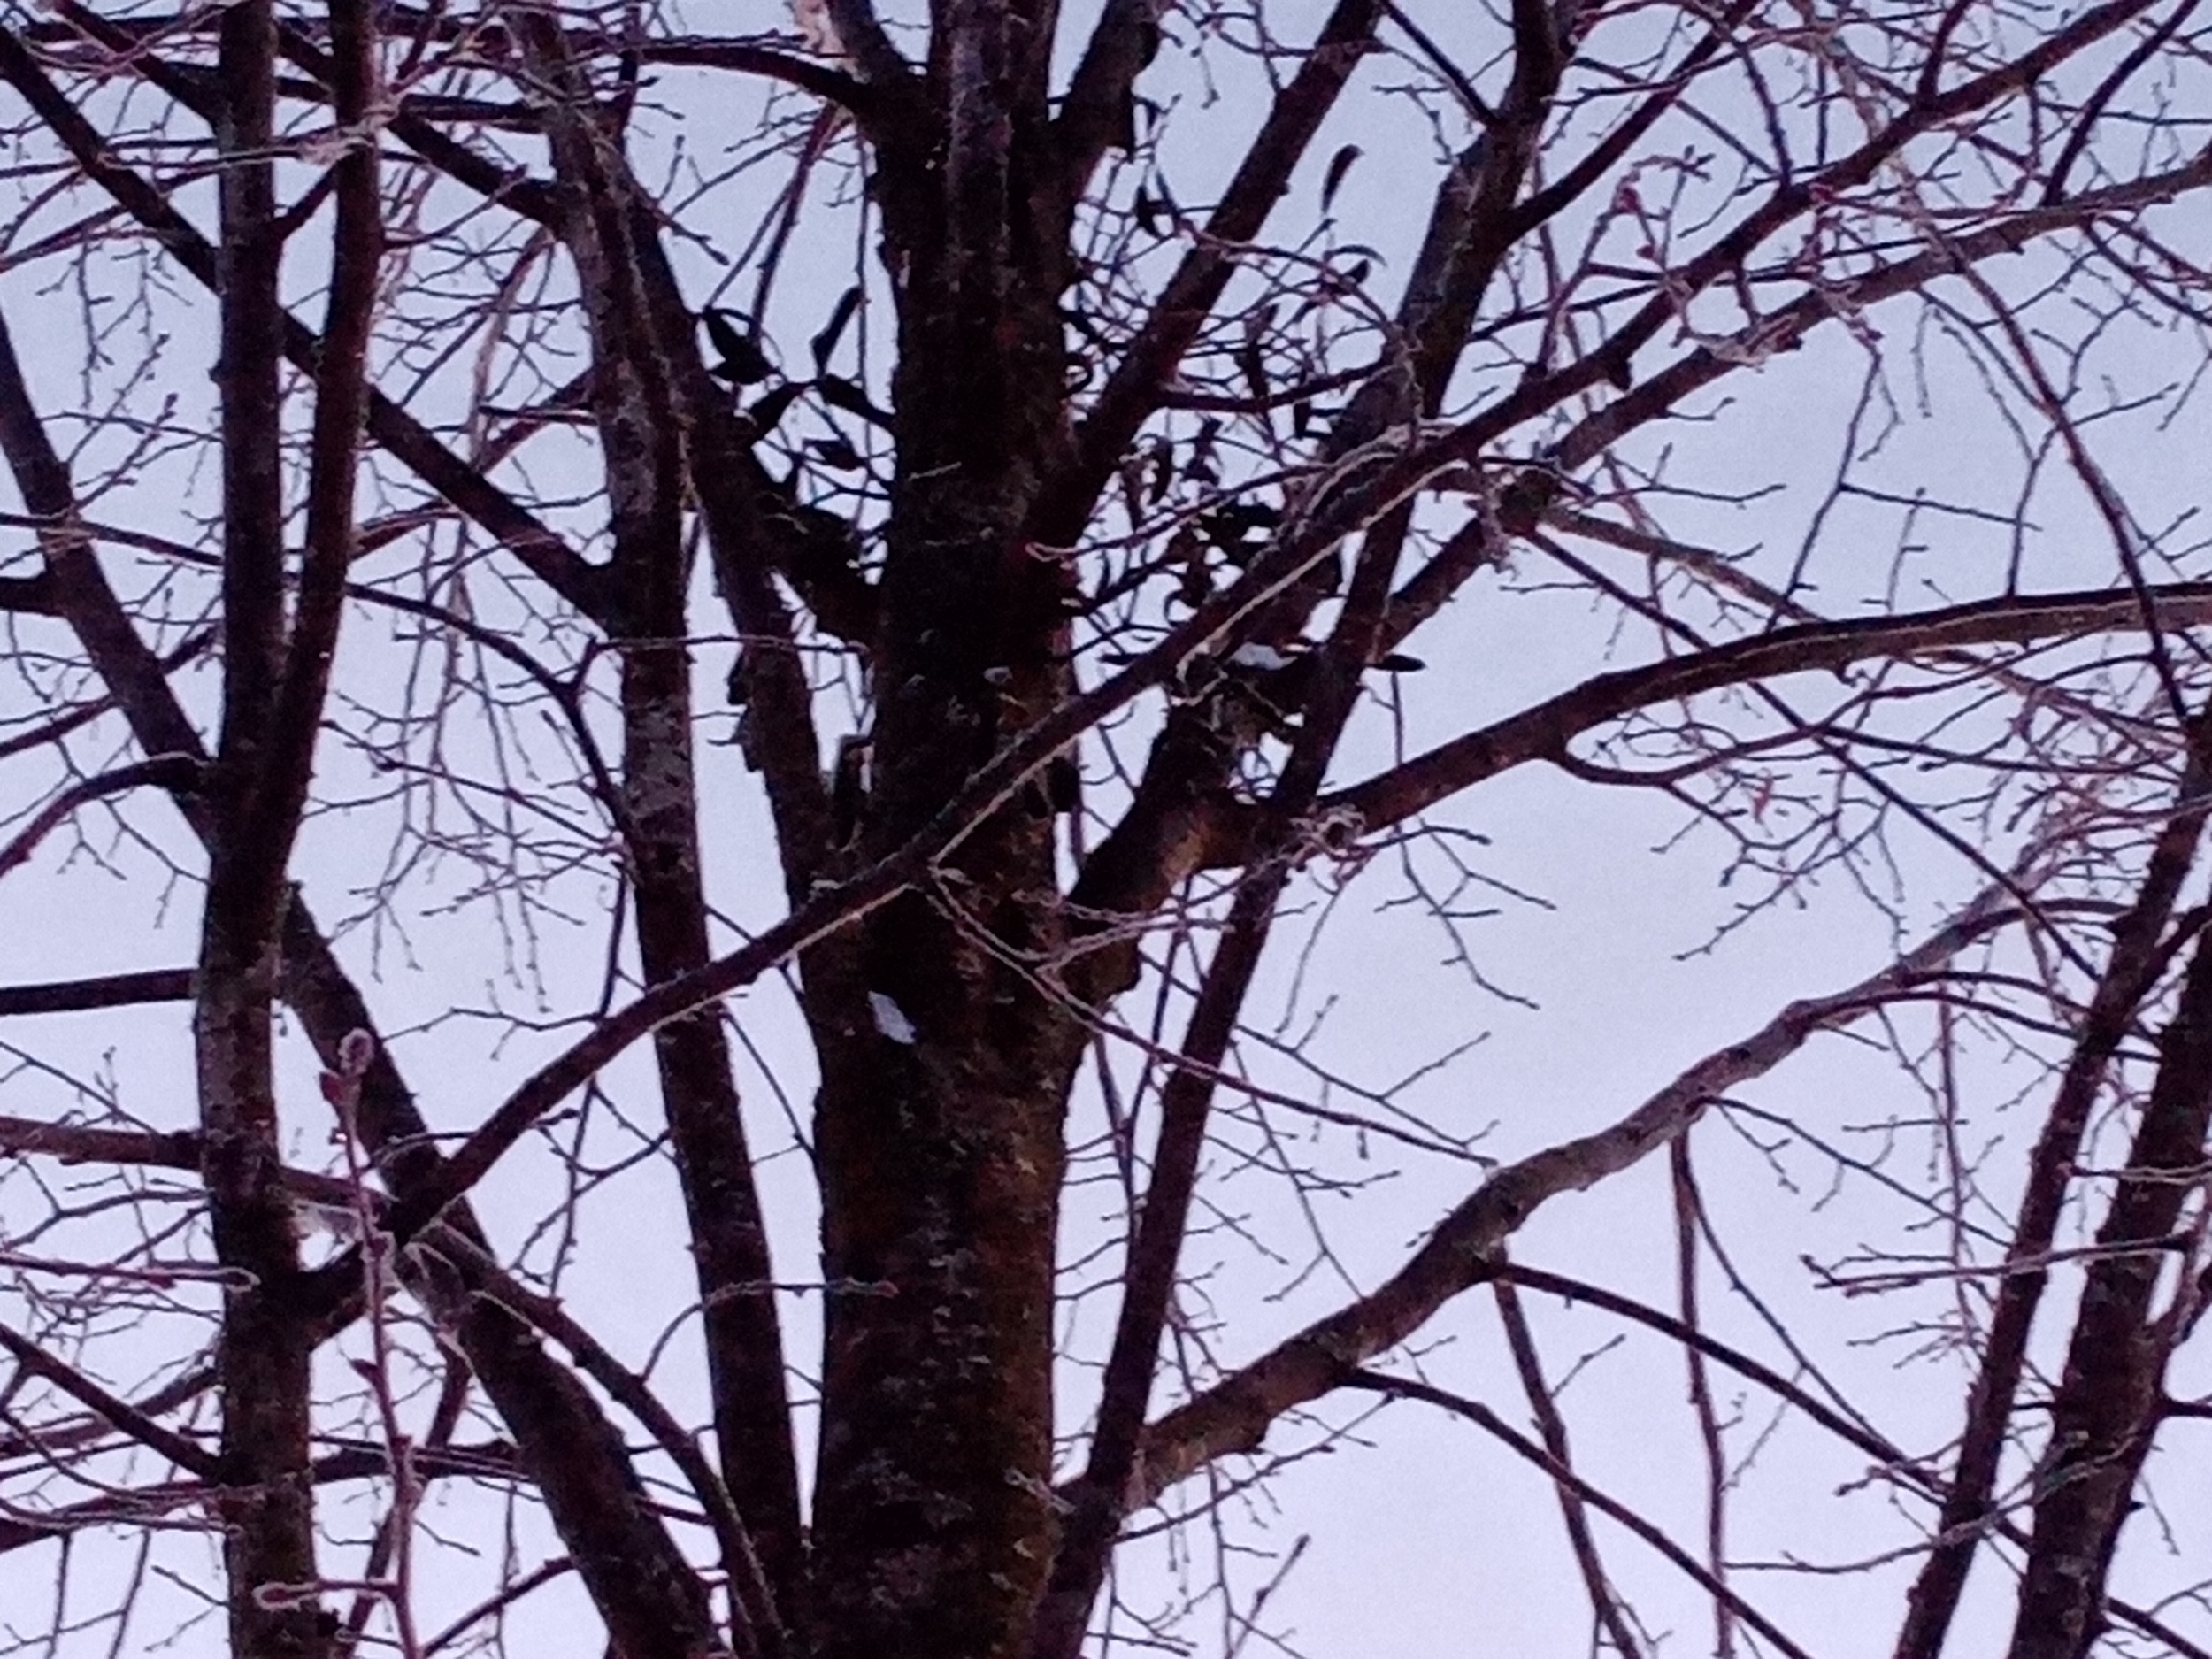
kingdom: Plantae
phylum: Tracheophyta
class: Magnoliopsida
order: Santalales
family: Viscaceae
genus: Viscum
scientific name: Viscum album
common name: Mistletoe
